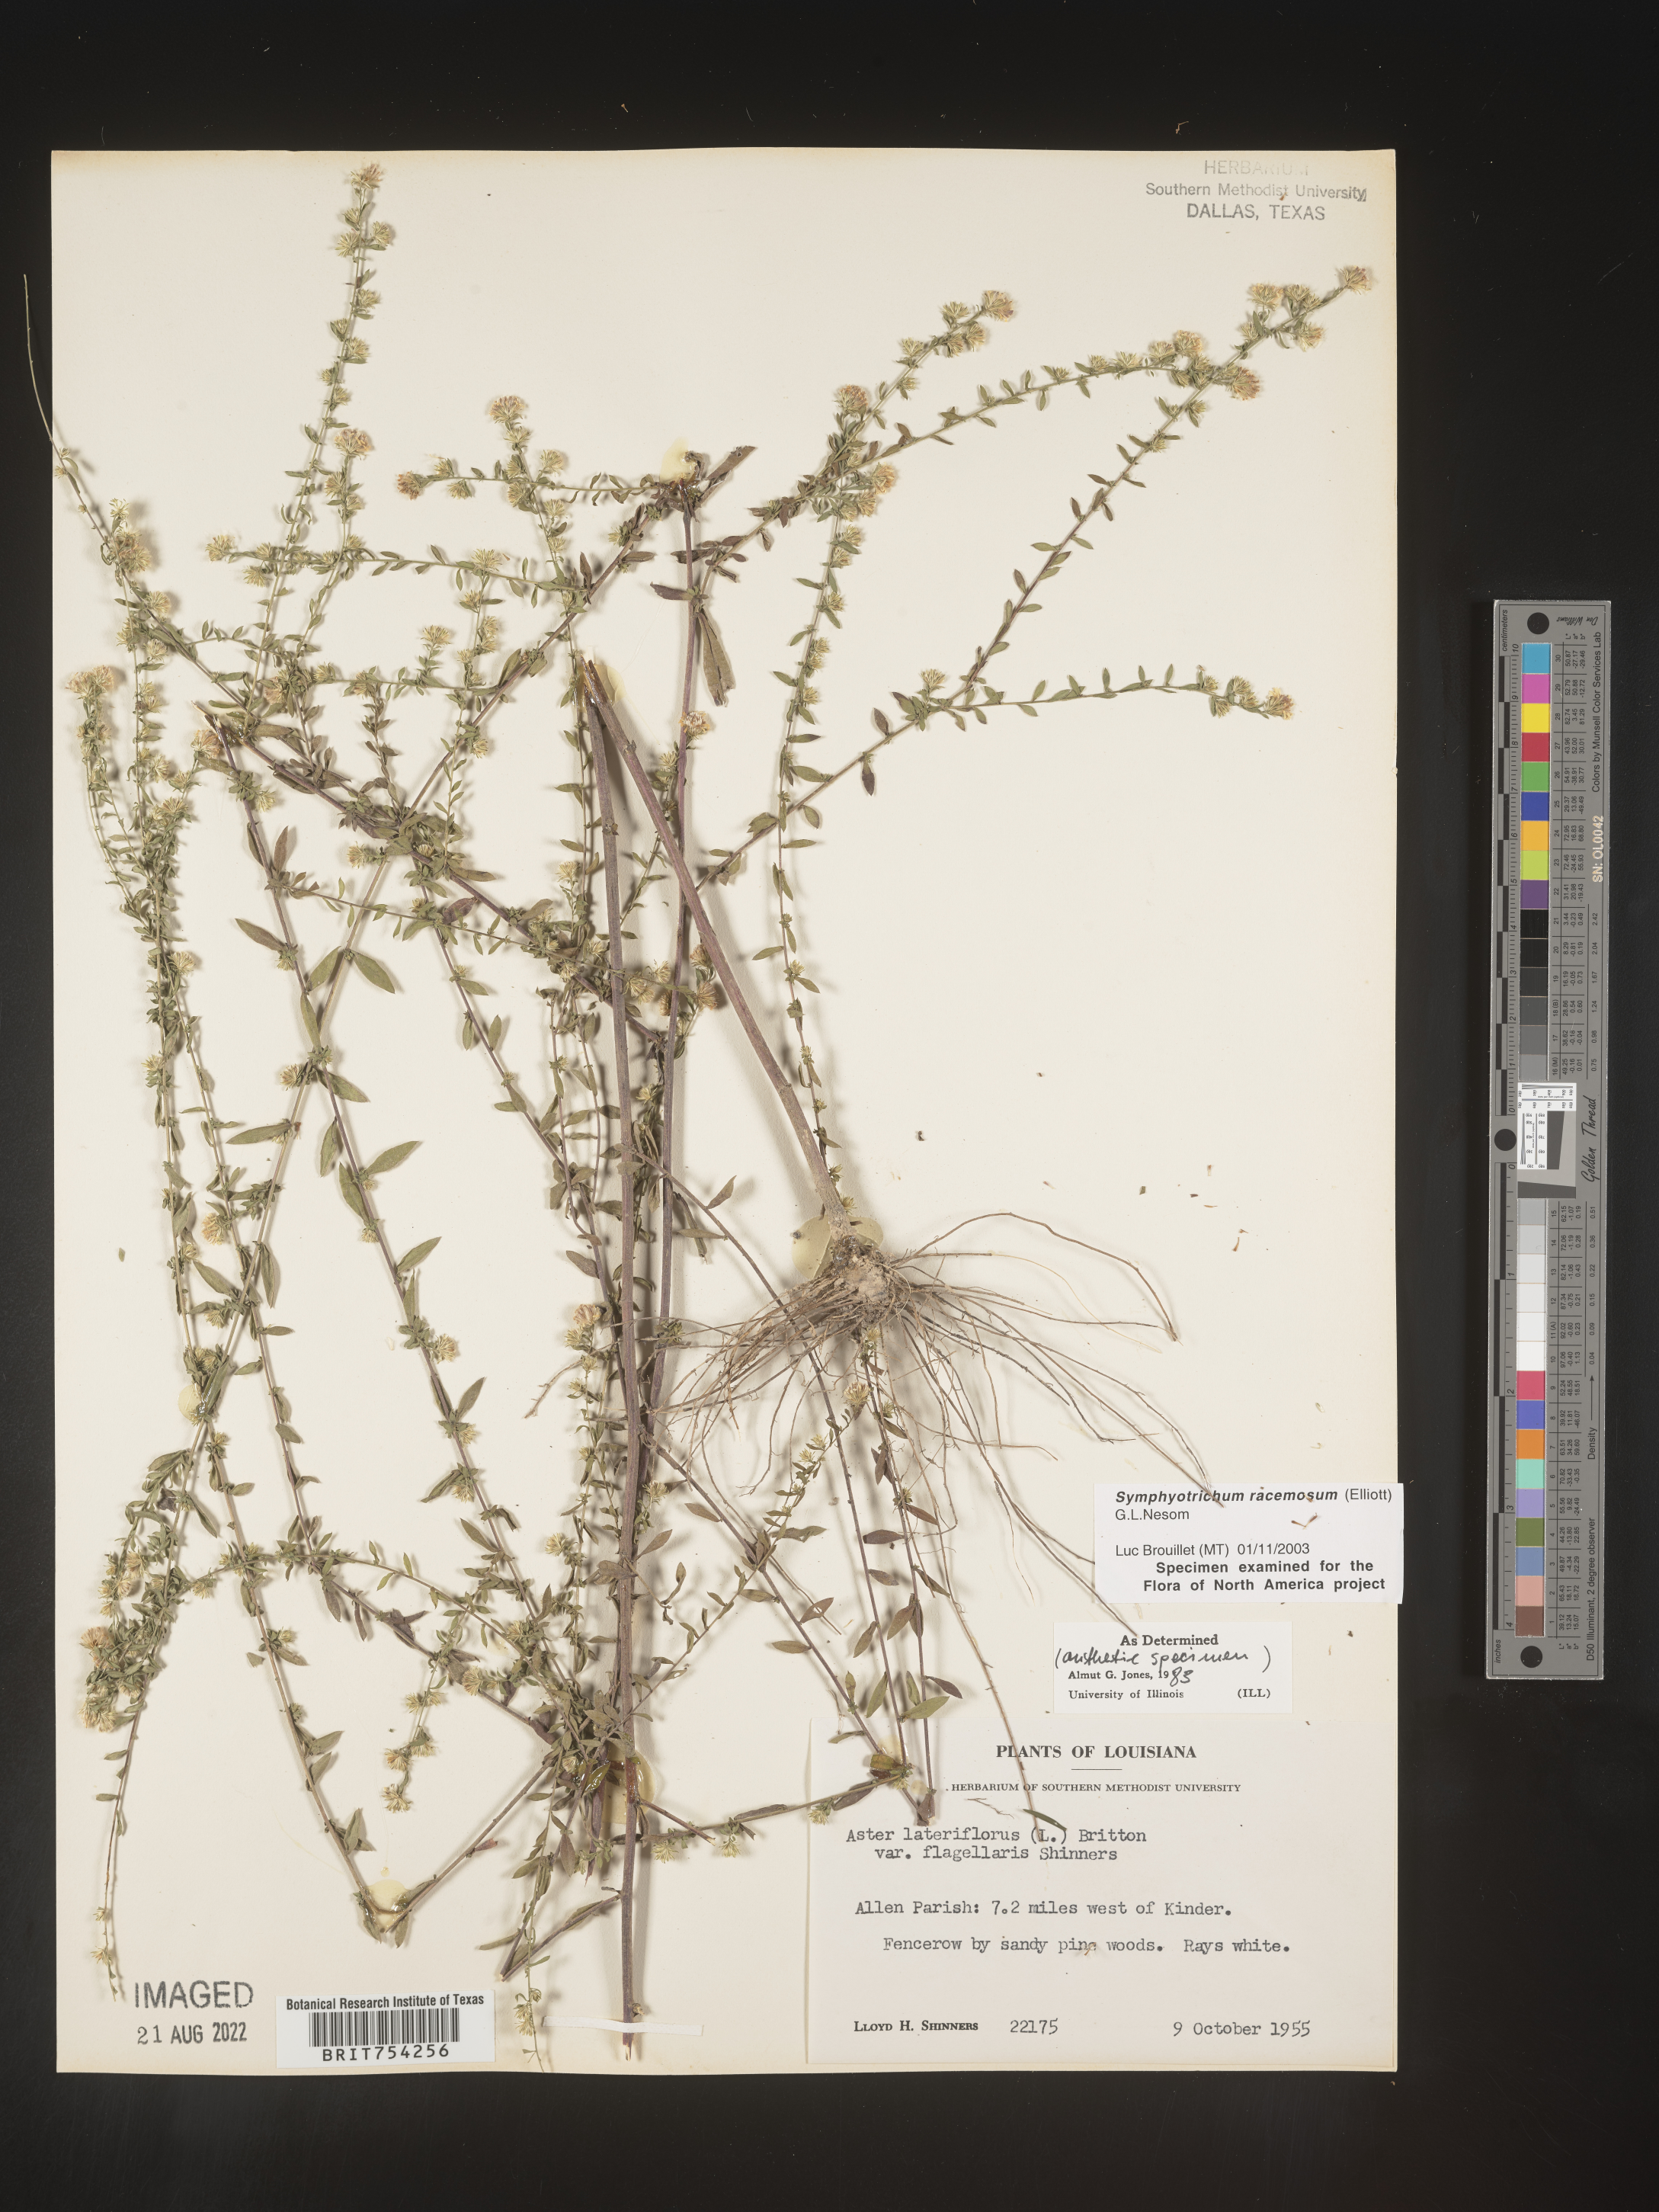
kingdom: Plantae
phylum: Tracheophyta
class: Magnoliopsida
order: Asterales
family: Asteraceae
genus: Symphyotrichum
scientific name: Symphyotrichum racemosum
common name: Small white aster
